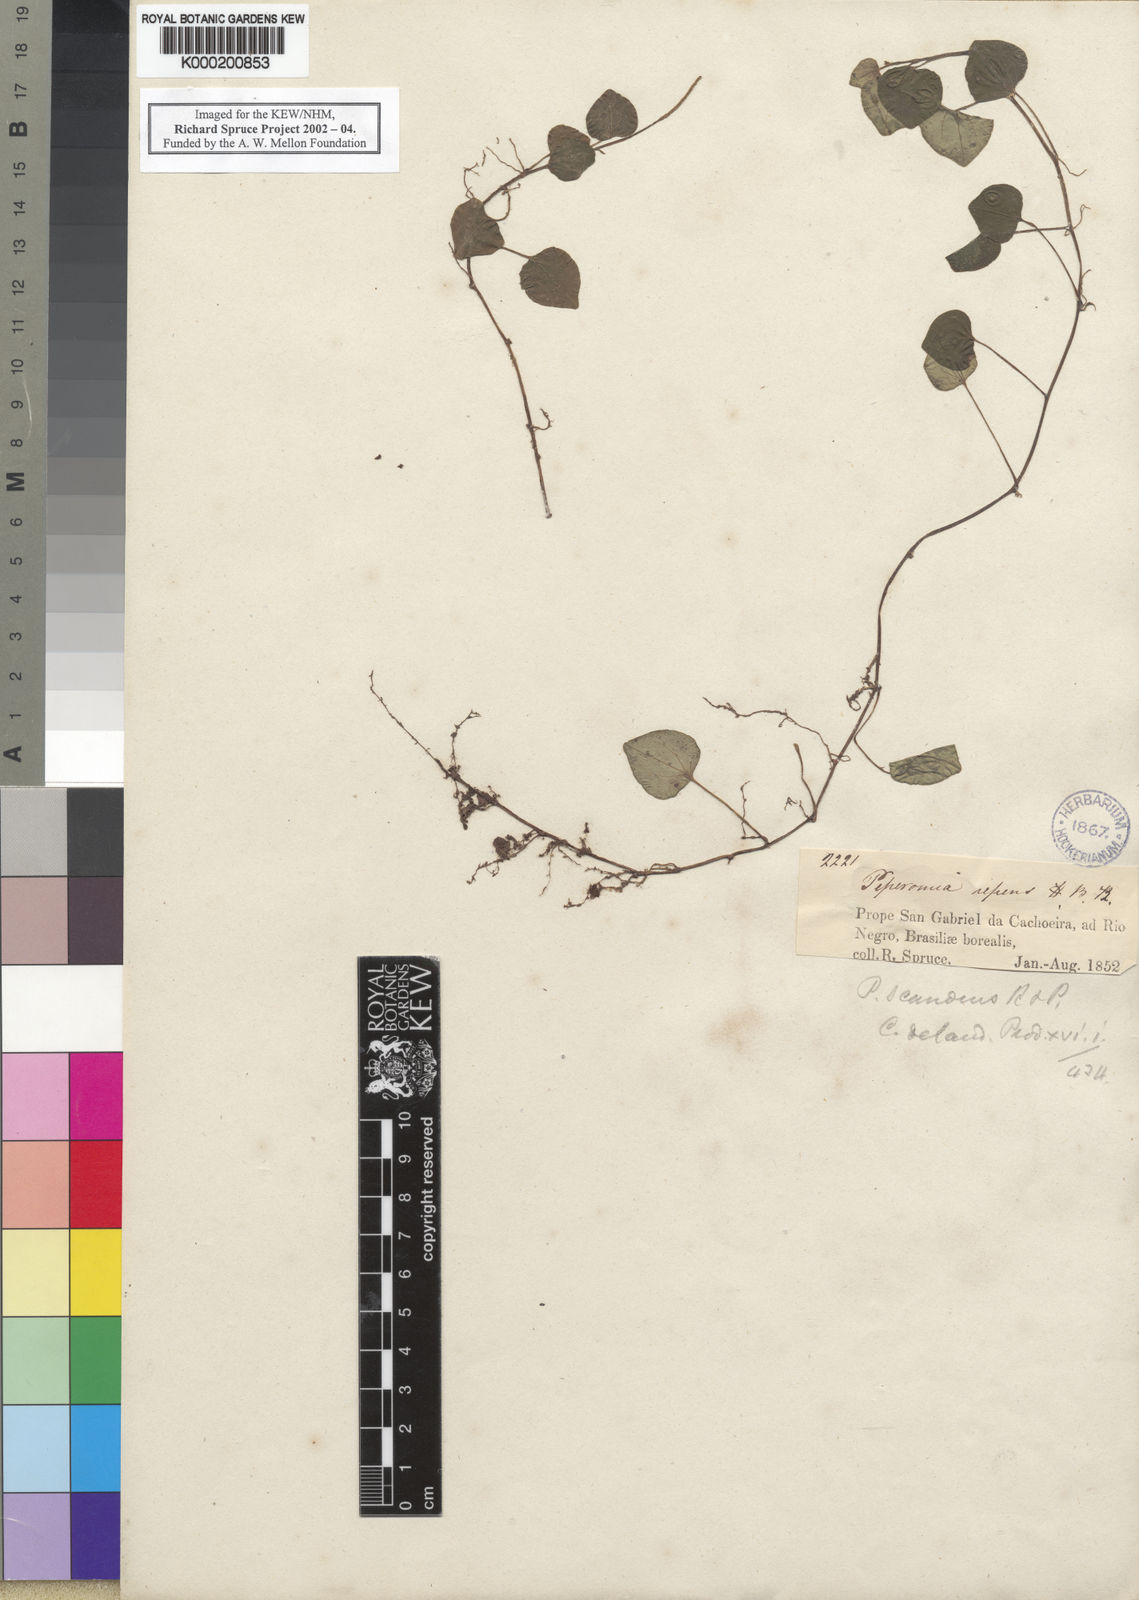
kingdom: Plantae
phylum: Tracheophyta
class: Magnoliopsida
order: Piperales
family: Piperaceae
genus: Peperomia
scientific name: Peperomia serpens
